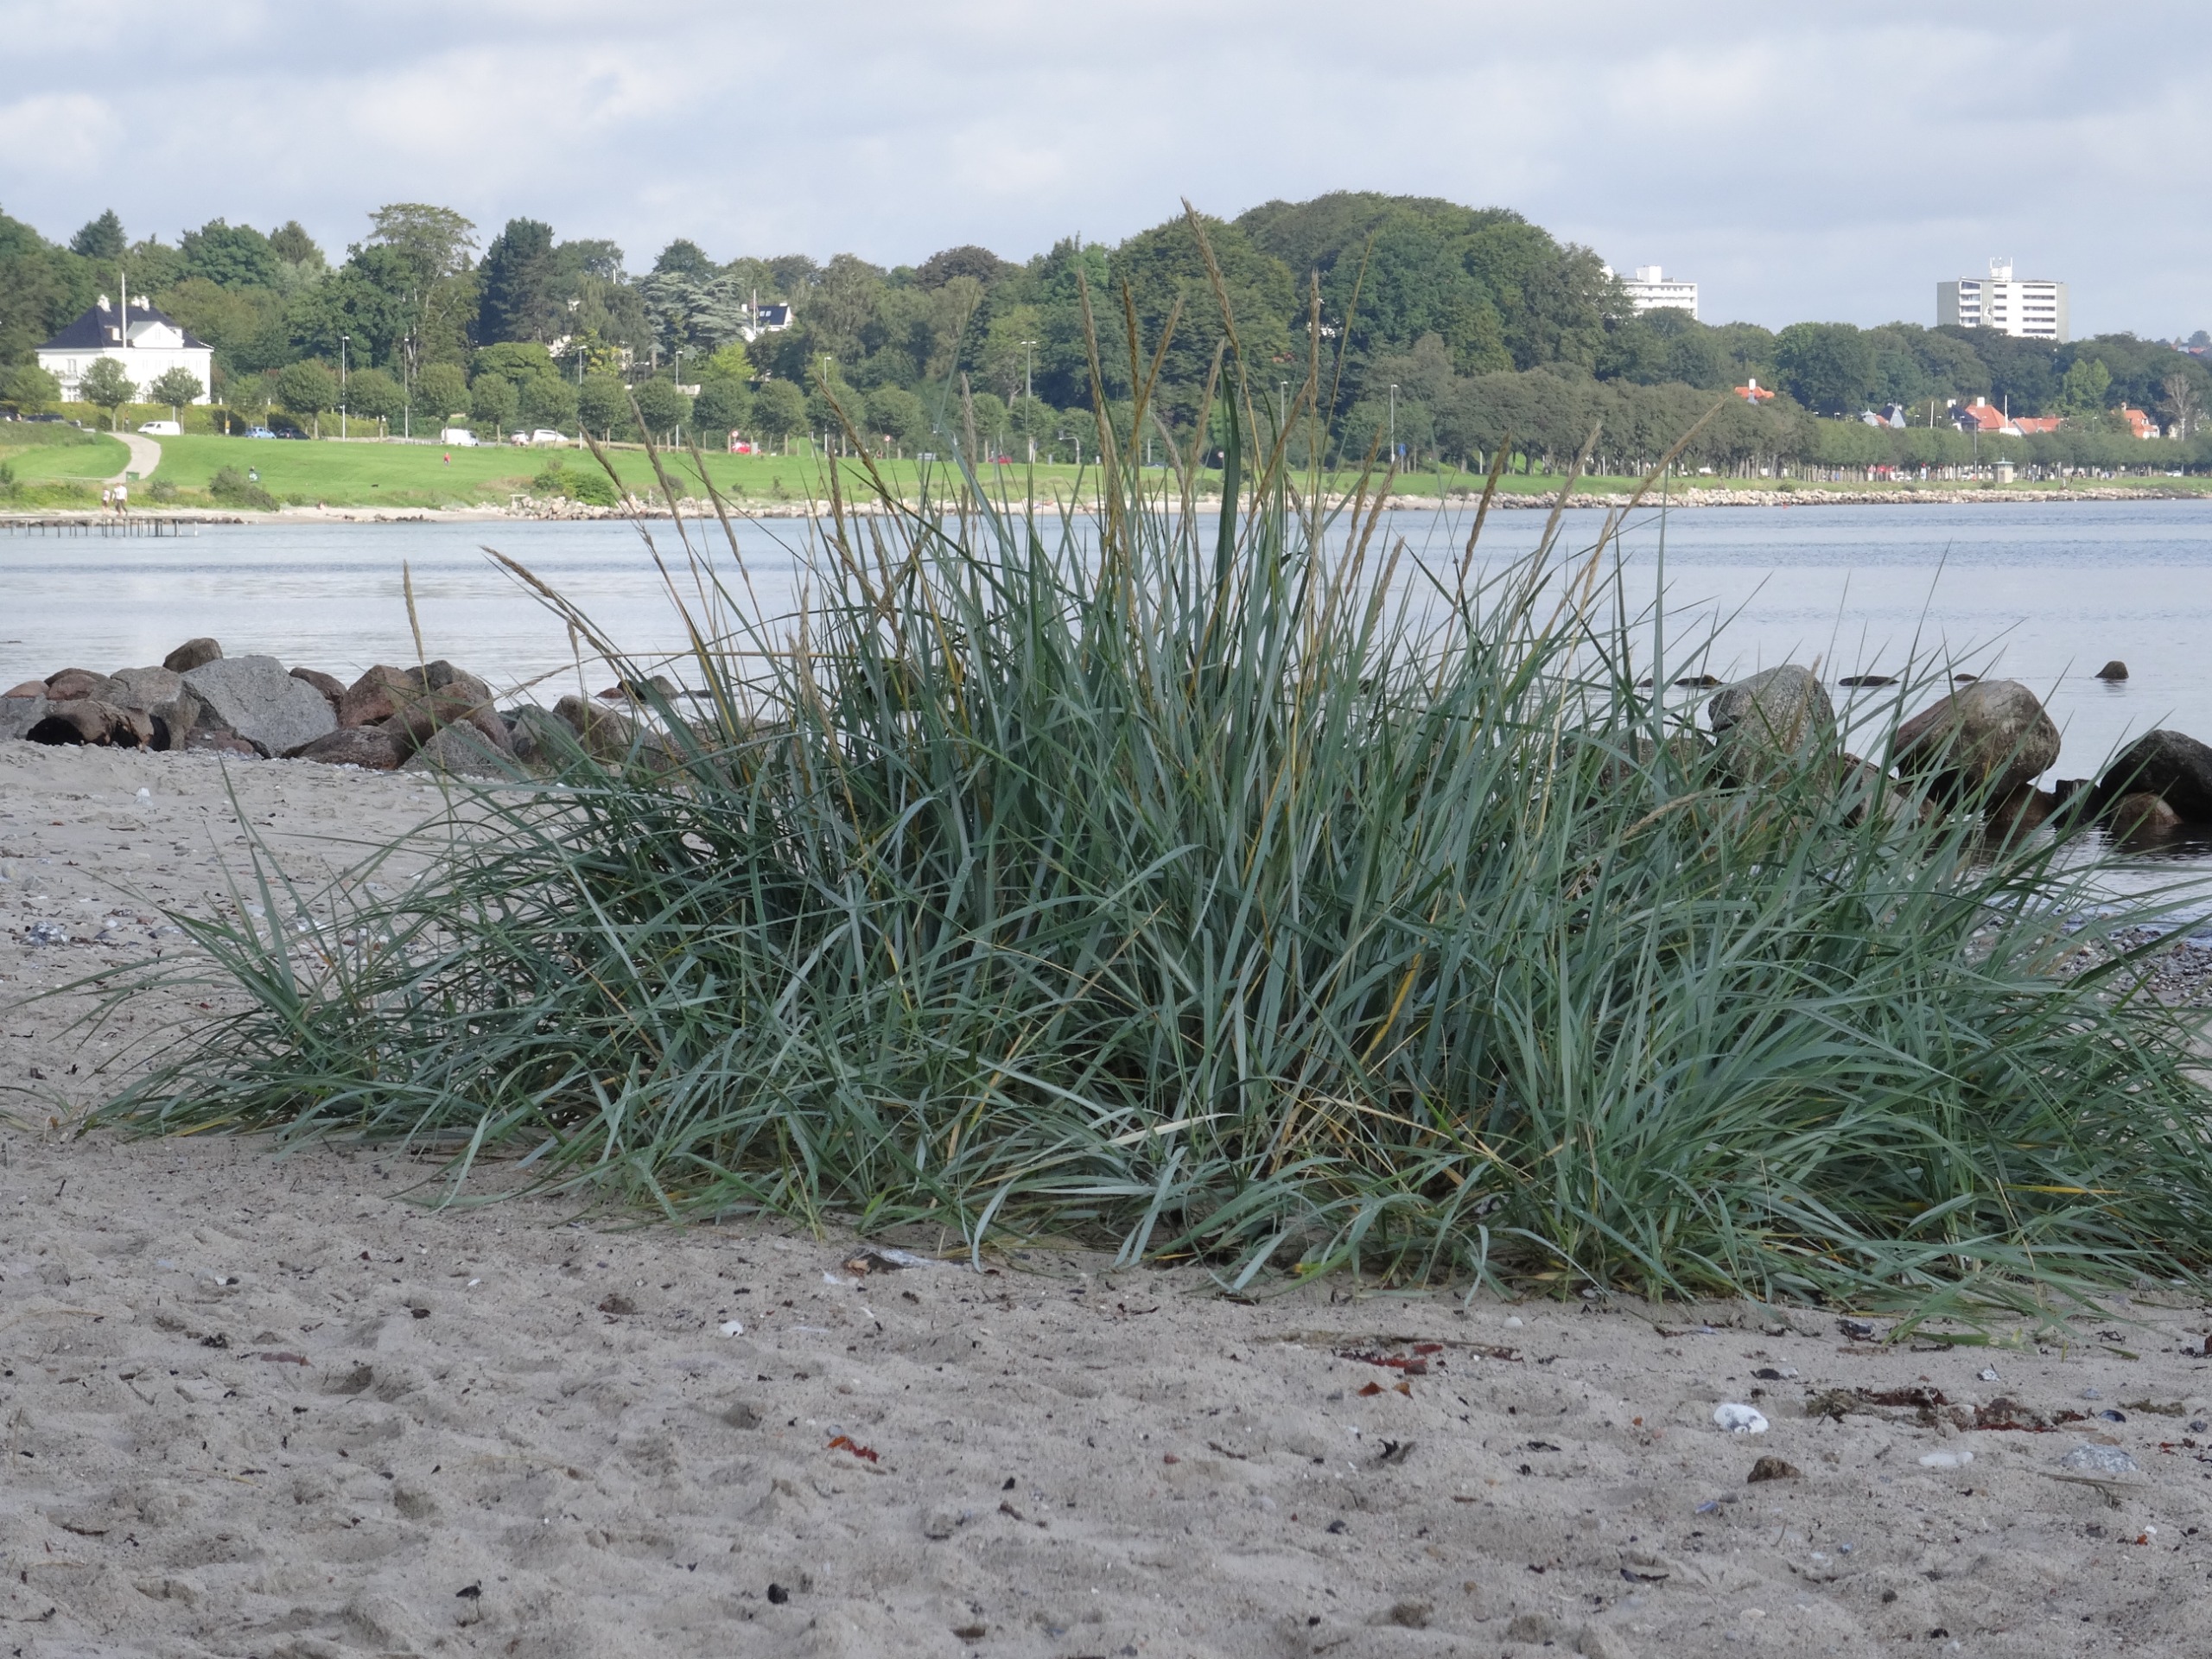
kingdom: Plantae
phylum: Tracheophyta
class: Liliopsida
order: Poales
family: Poaceae
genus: Leymus
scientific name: Leymus arenarius
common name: Marehalm
